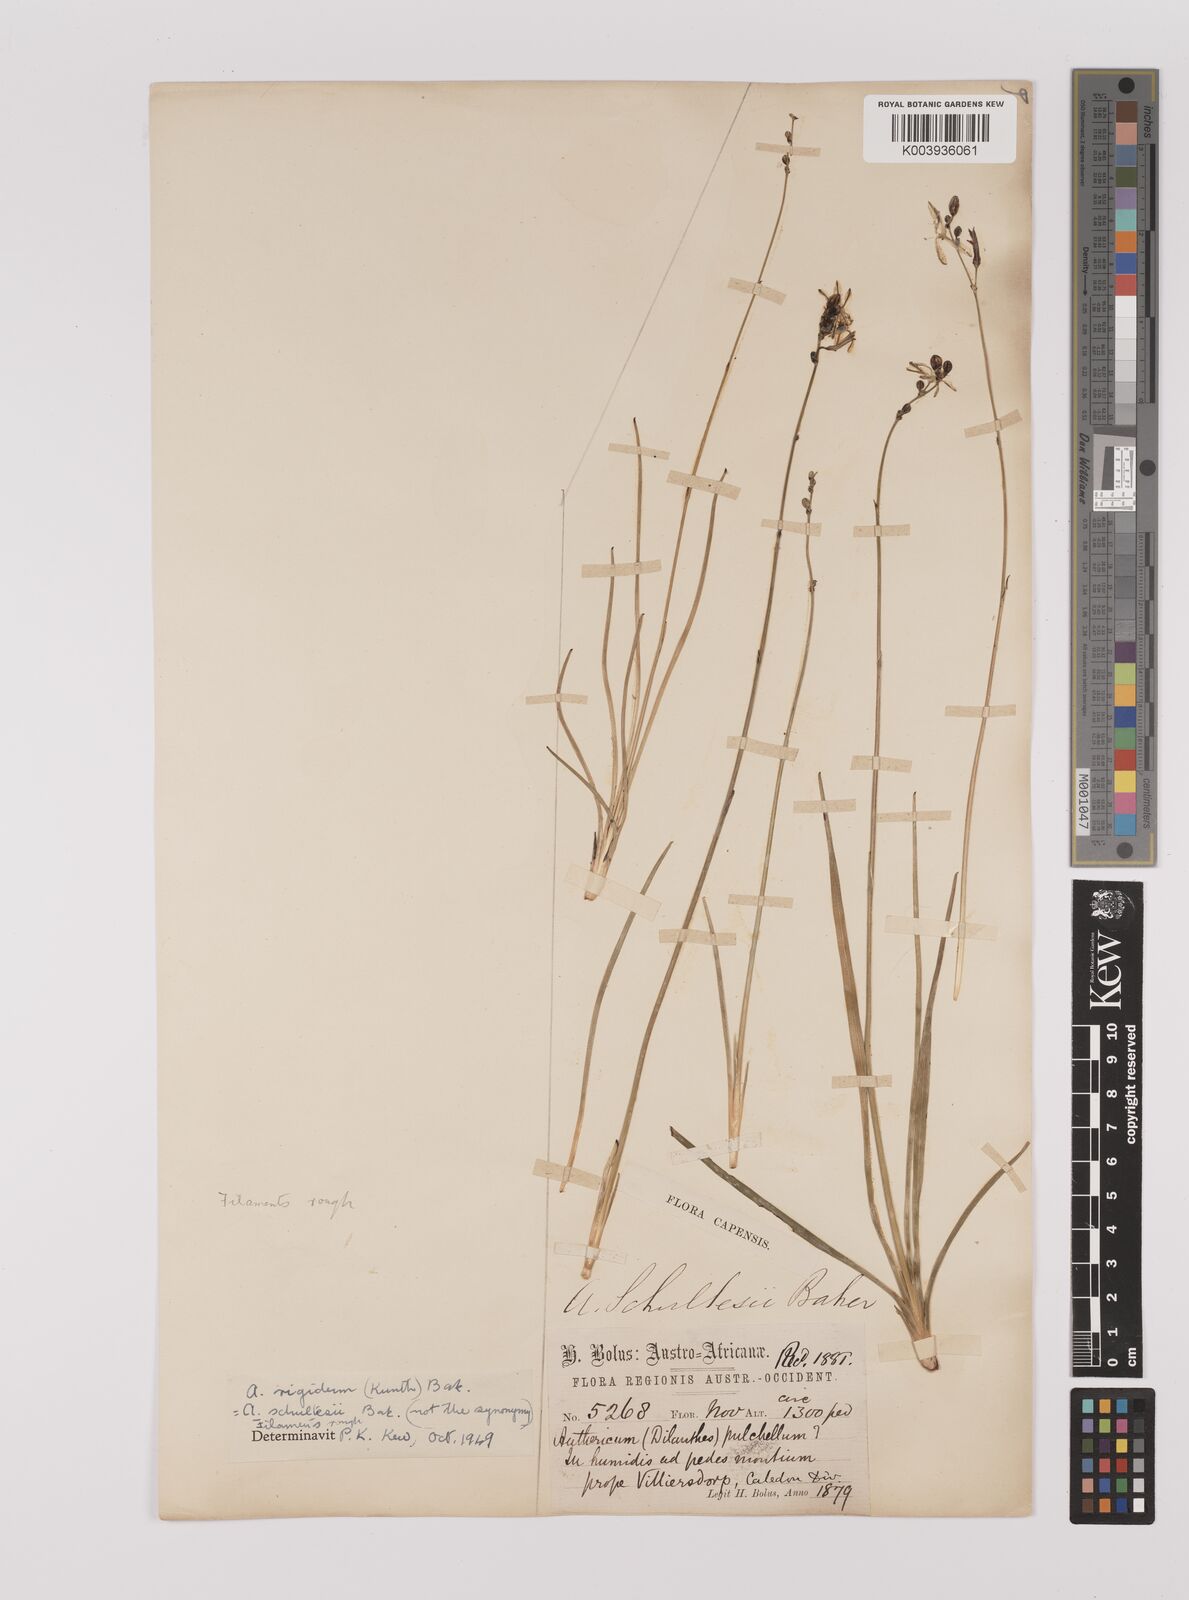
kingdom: Plantae
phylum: Tracheophyta
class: Liliopsida
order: Asparagales
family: Asparagaceae
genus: Chlorophytum
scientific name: Chlorophytum rigidum
